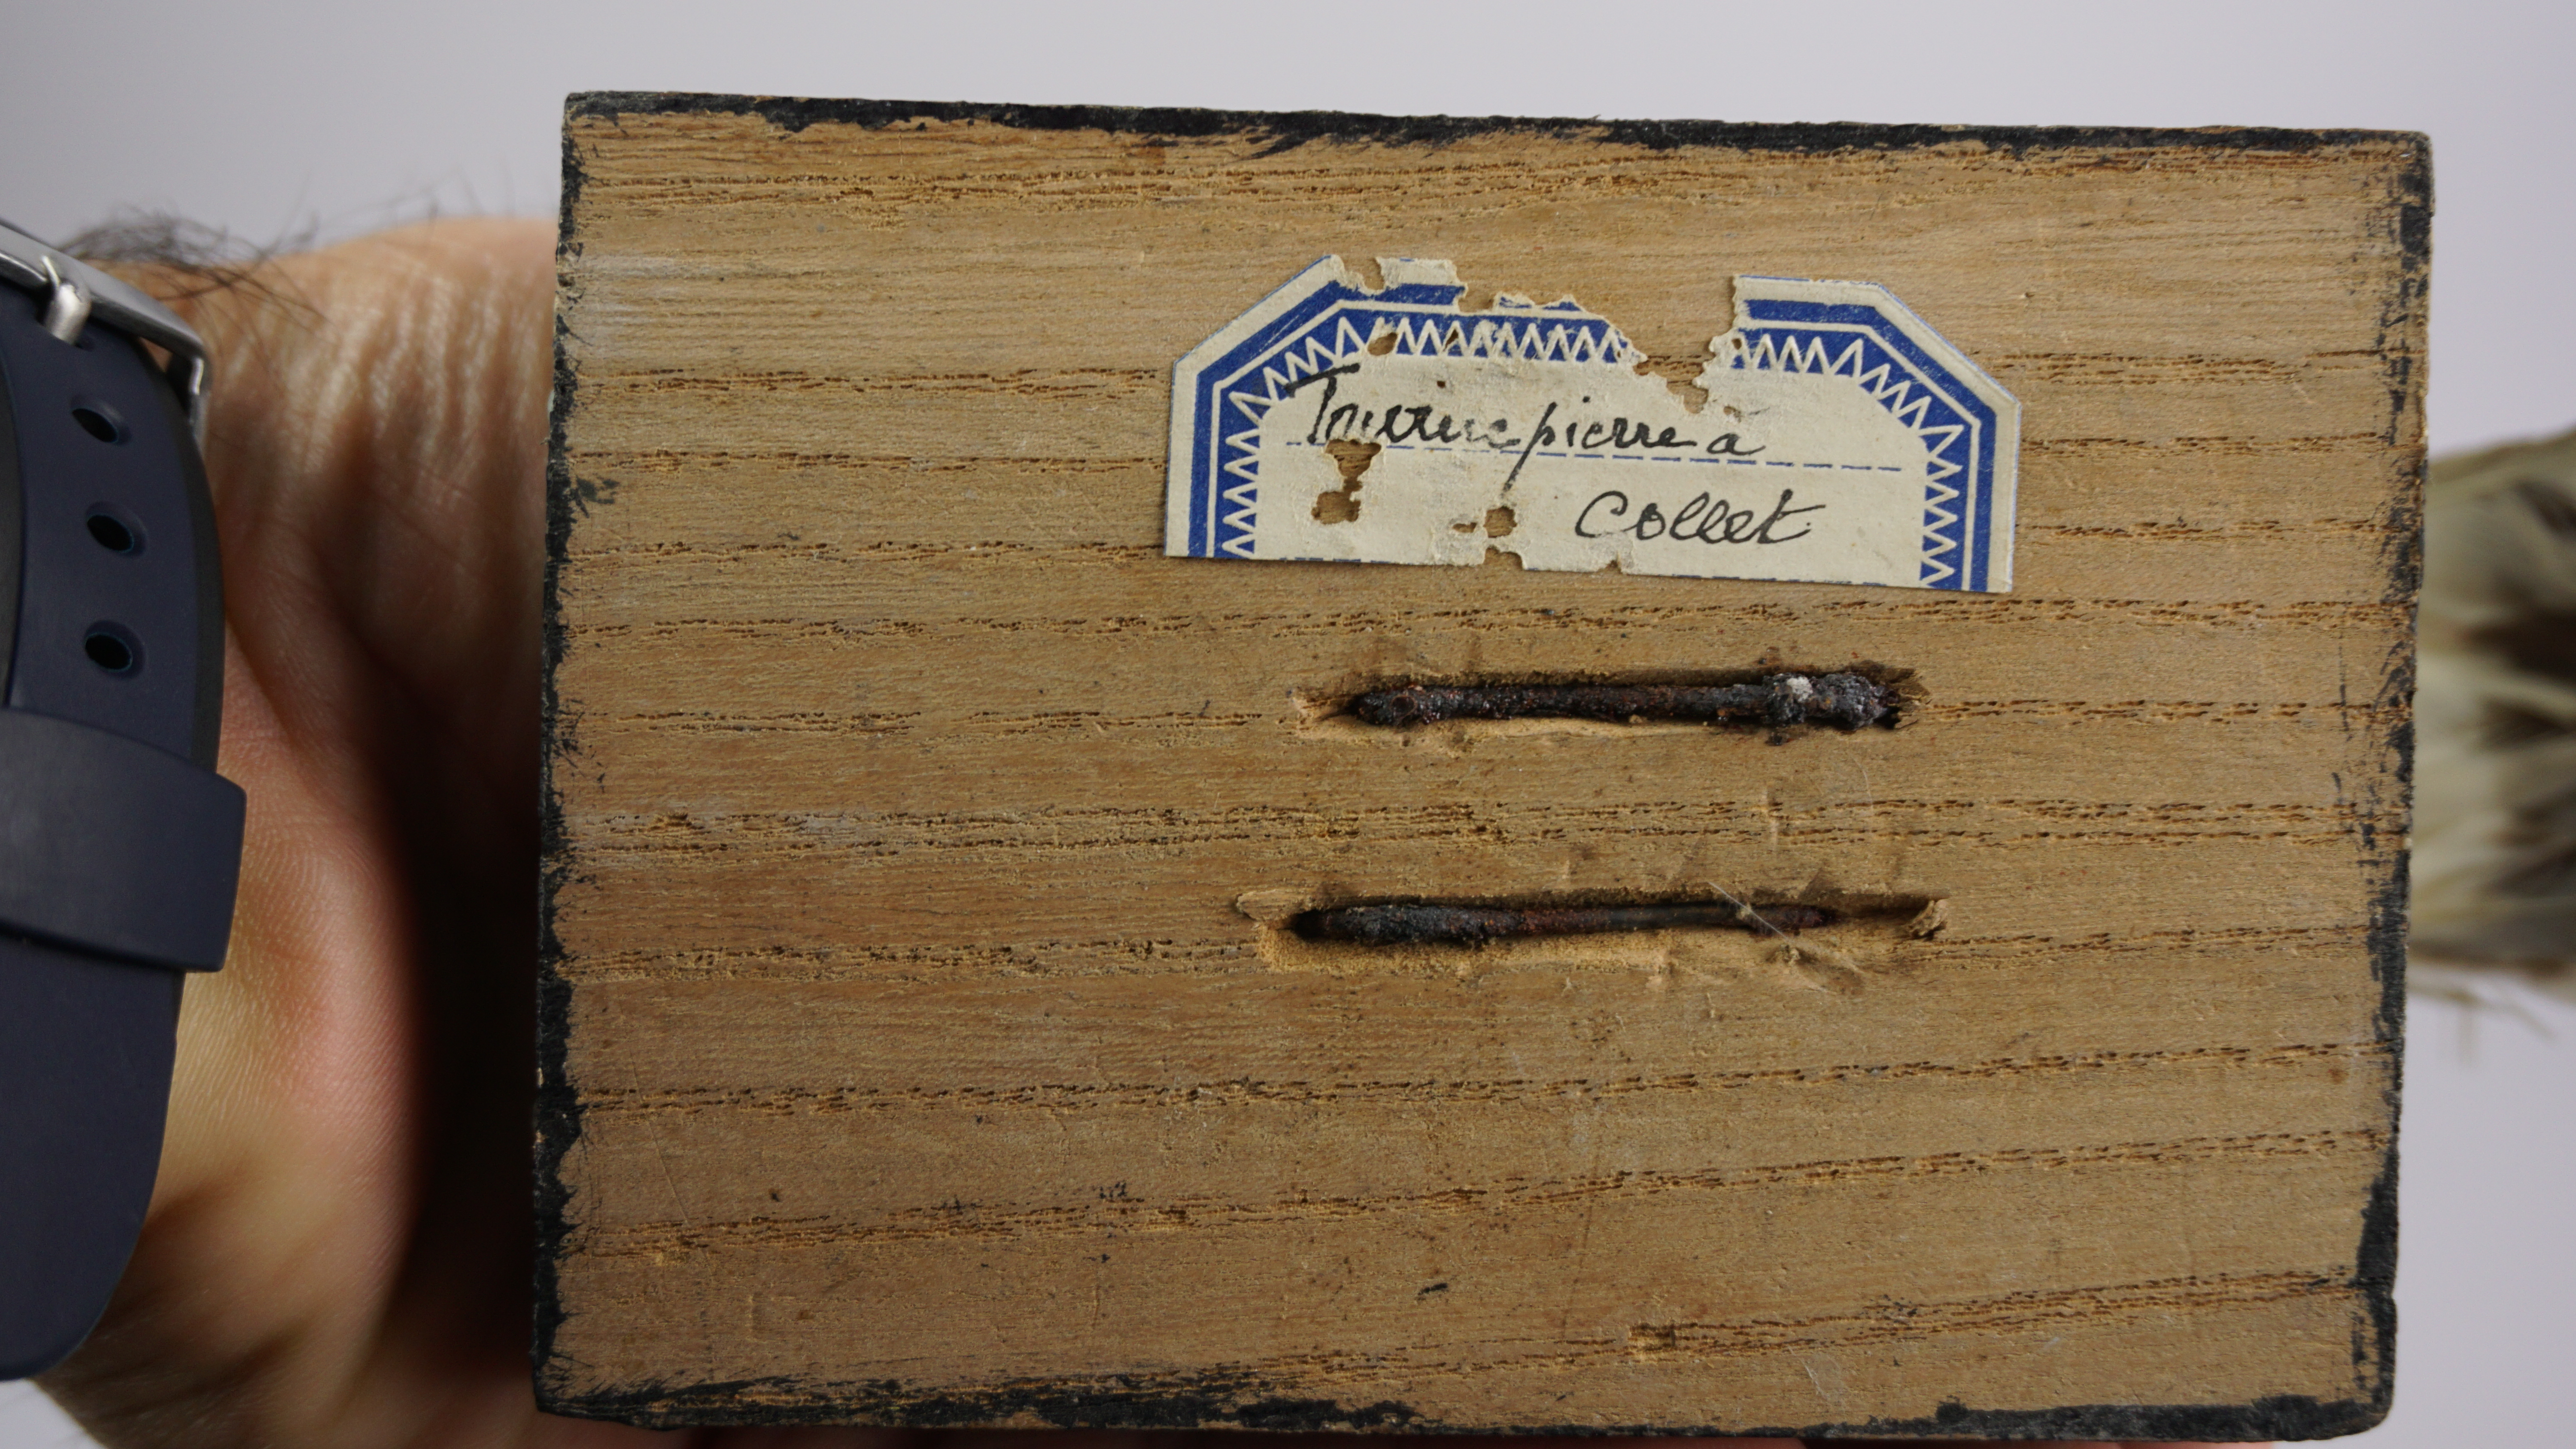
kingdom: Animalia
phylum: Chordata
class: Aves
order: Charadriiformes
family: Scolopacidae
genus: Arenaria
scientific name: Arenaria interpres
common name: Ruddy turnstone
